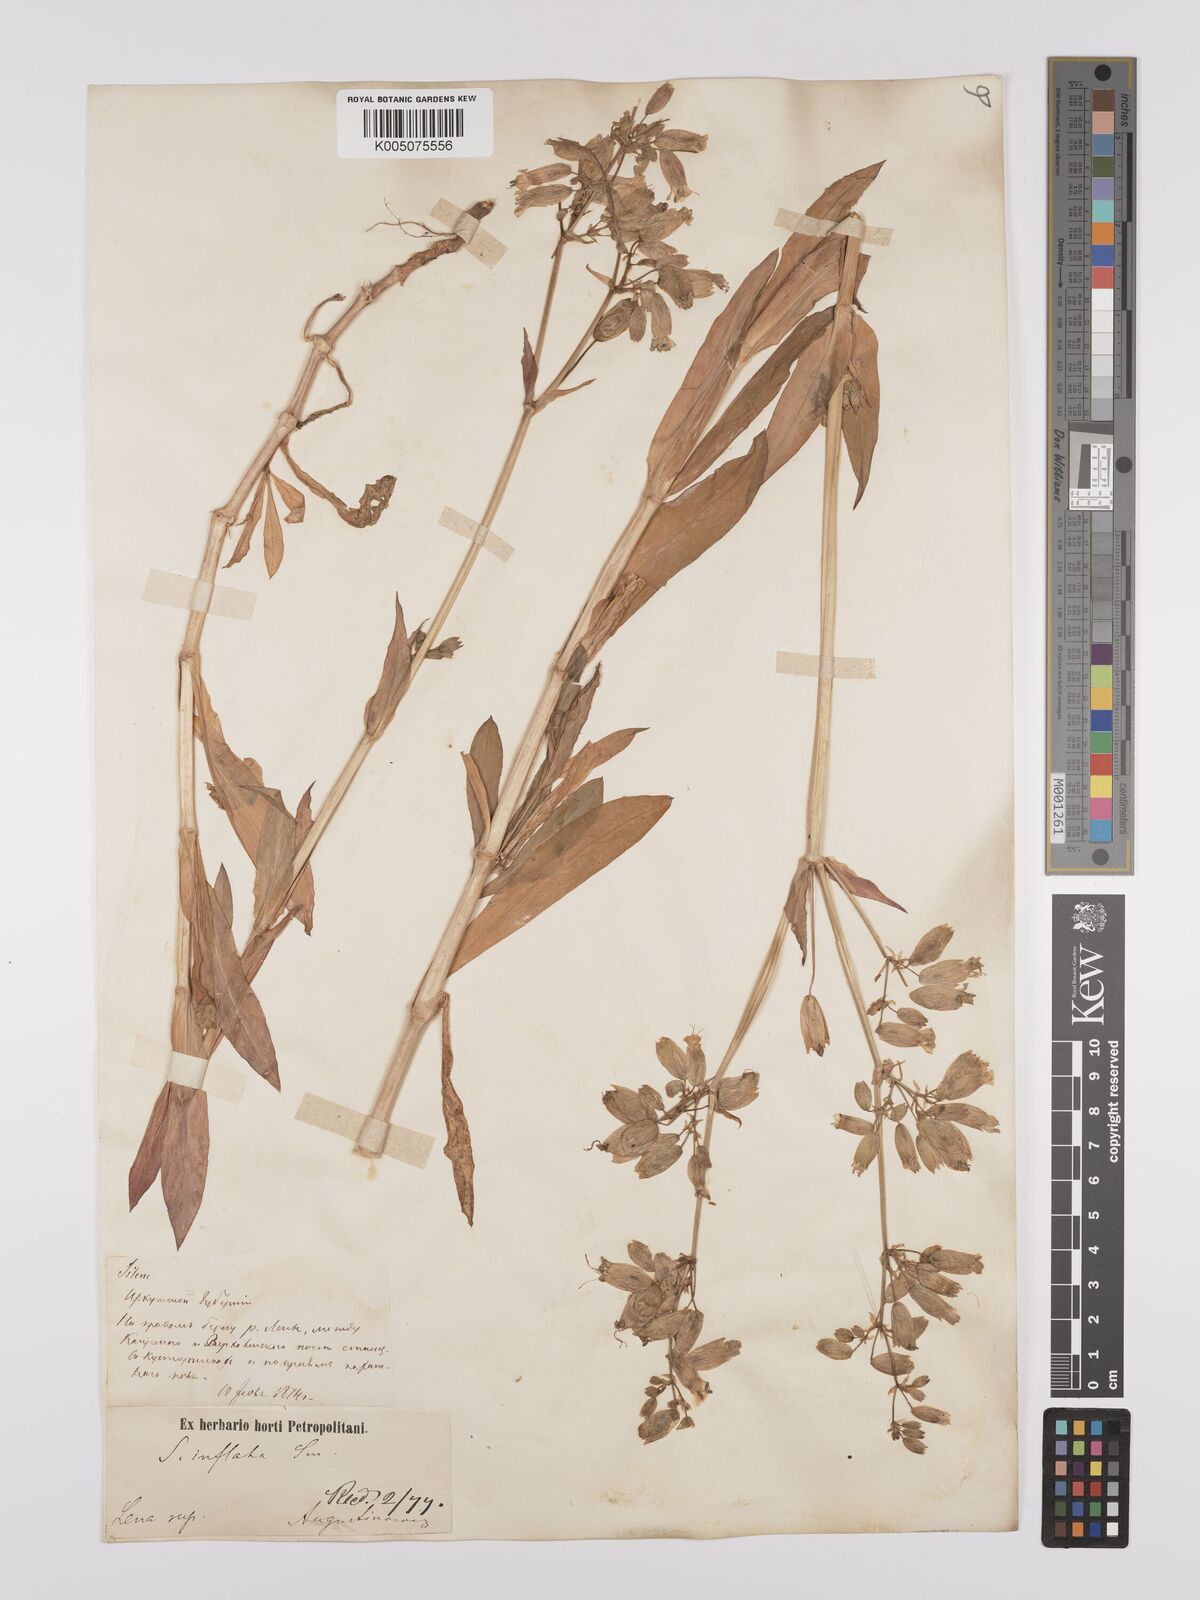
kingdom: Plantae
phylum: Tracheophyta
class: Magnoliopsida
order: Caryophyllales
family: Caryophyllaceae
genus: Silene
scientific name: Silene vulgaris
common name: Bladder campion
